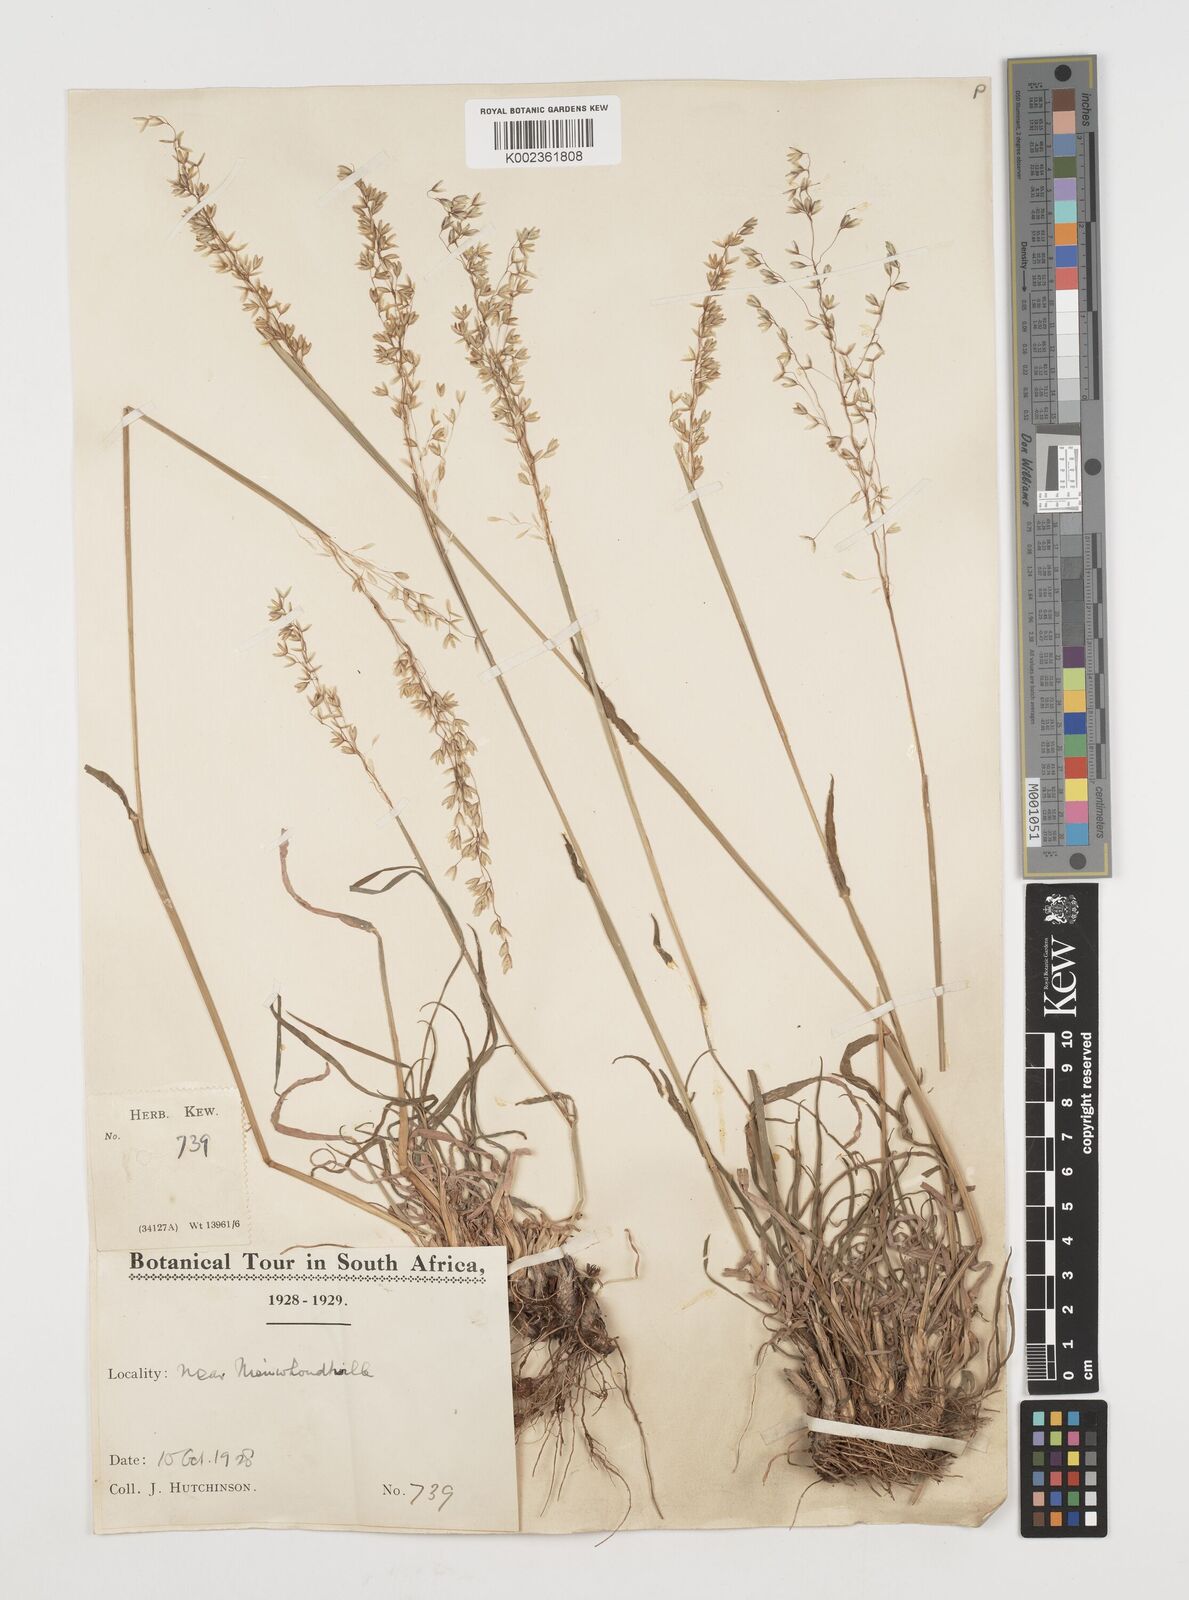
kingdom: Plantae
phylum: Tracheophyta
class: Liliopsida
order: Poales
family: Poaceae
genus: Ehrharta
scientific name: Ehrharta melicoides
